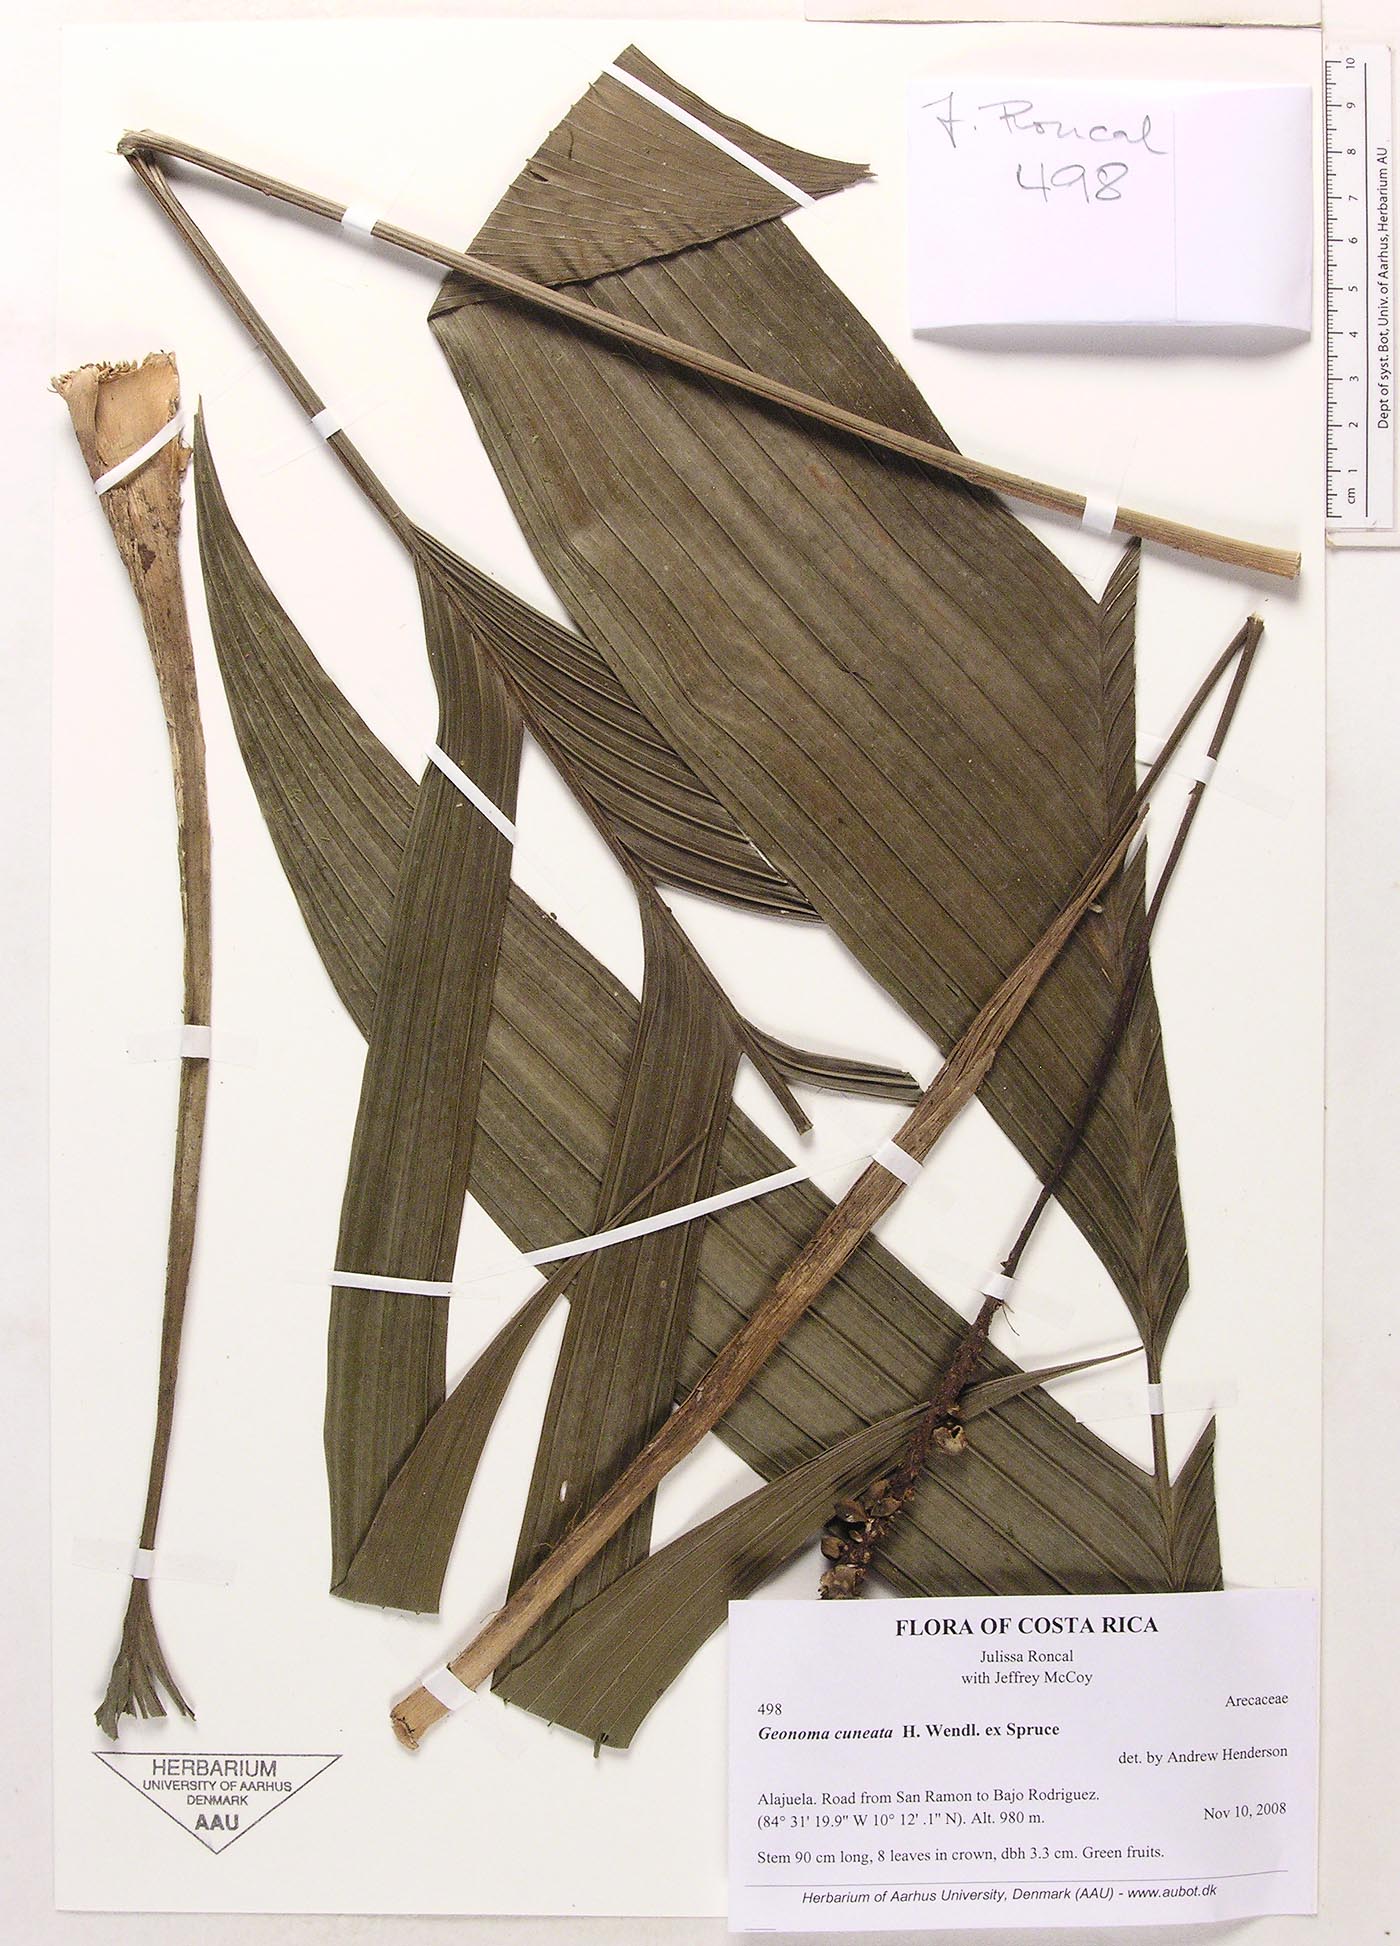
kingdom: Plantae
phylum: Tracheophyta
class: Liliopsida
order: Arecales
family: Arecaceae
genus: Geonoma
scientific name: Geonoma cuneata
